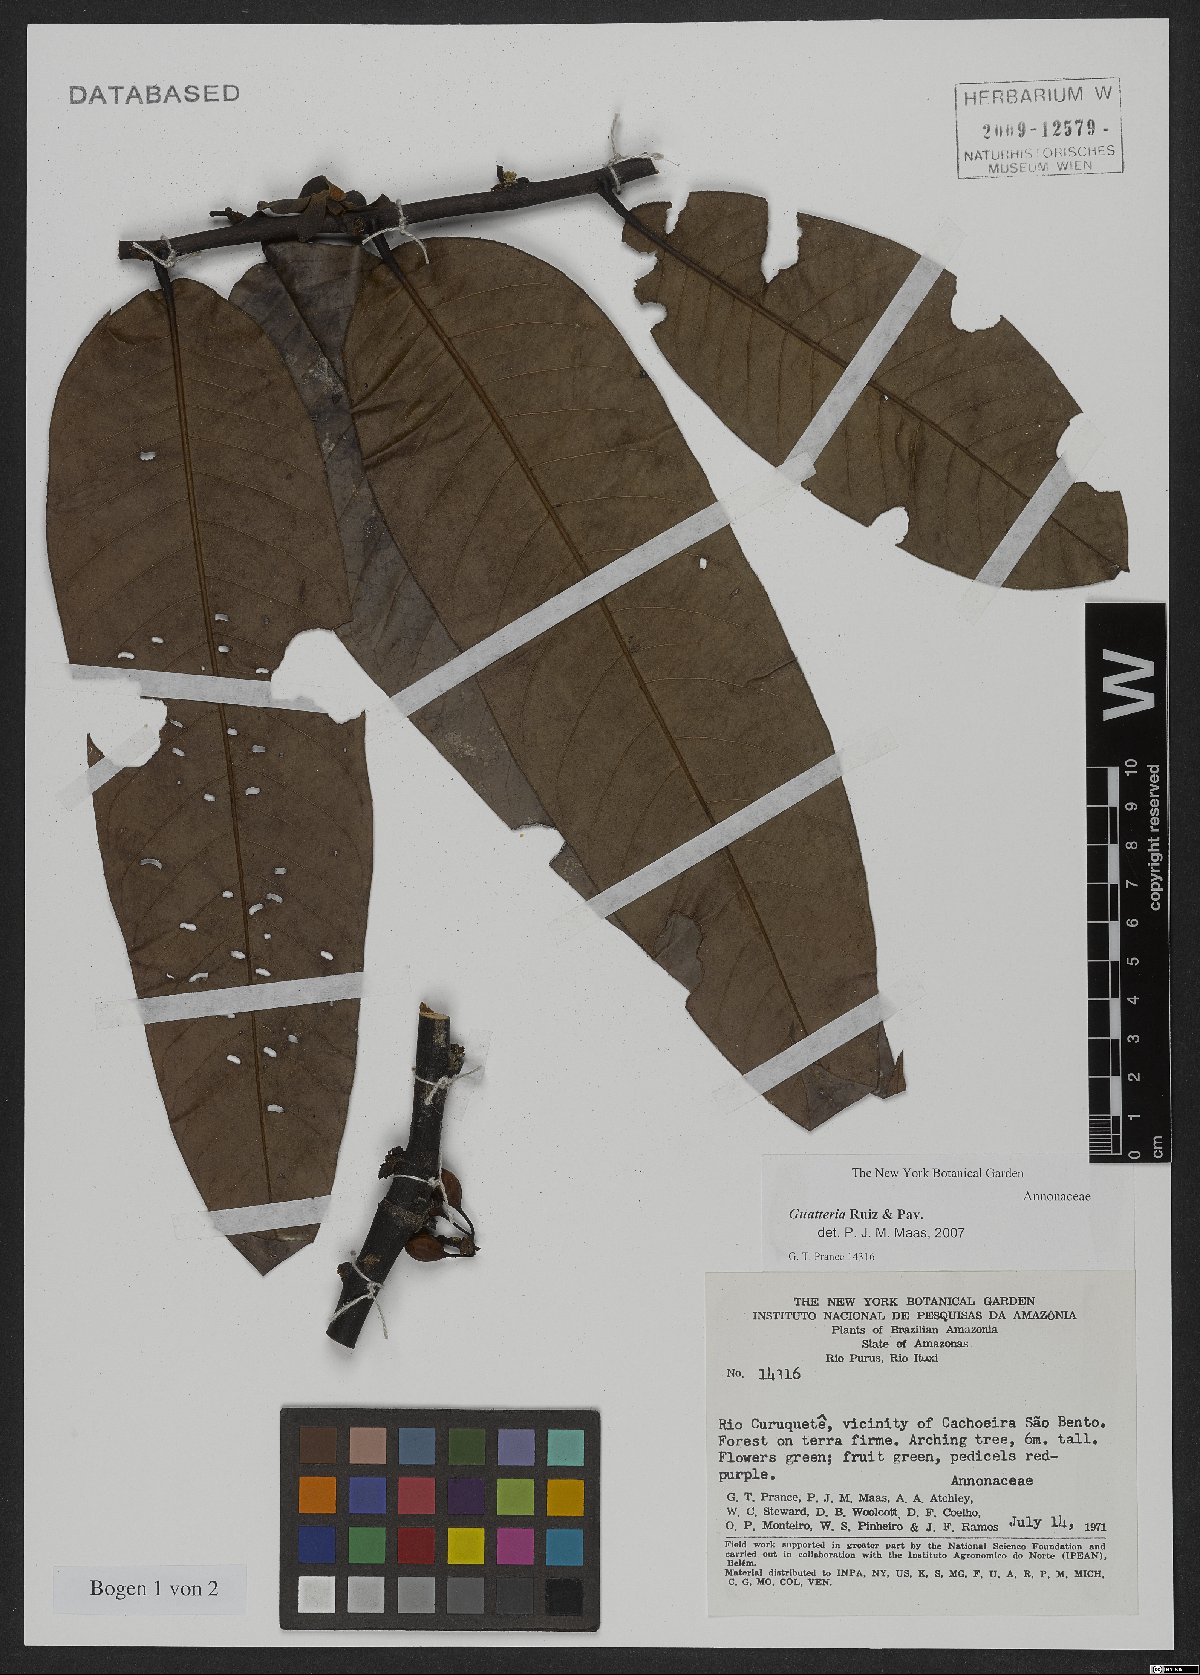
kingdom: Plantae
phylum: Tracheophyta
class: Magnoliopsida
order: Magnoliales
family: Annonaceae
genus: Guatteria
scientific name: Guatteria
